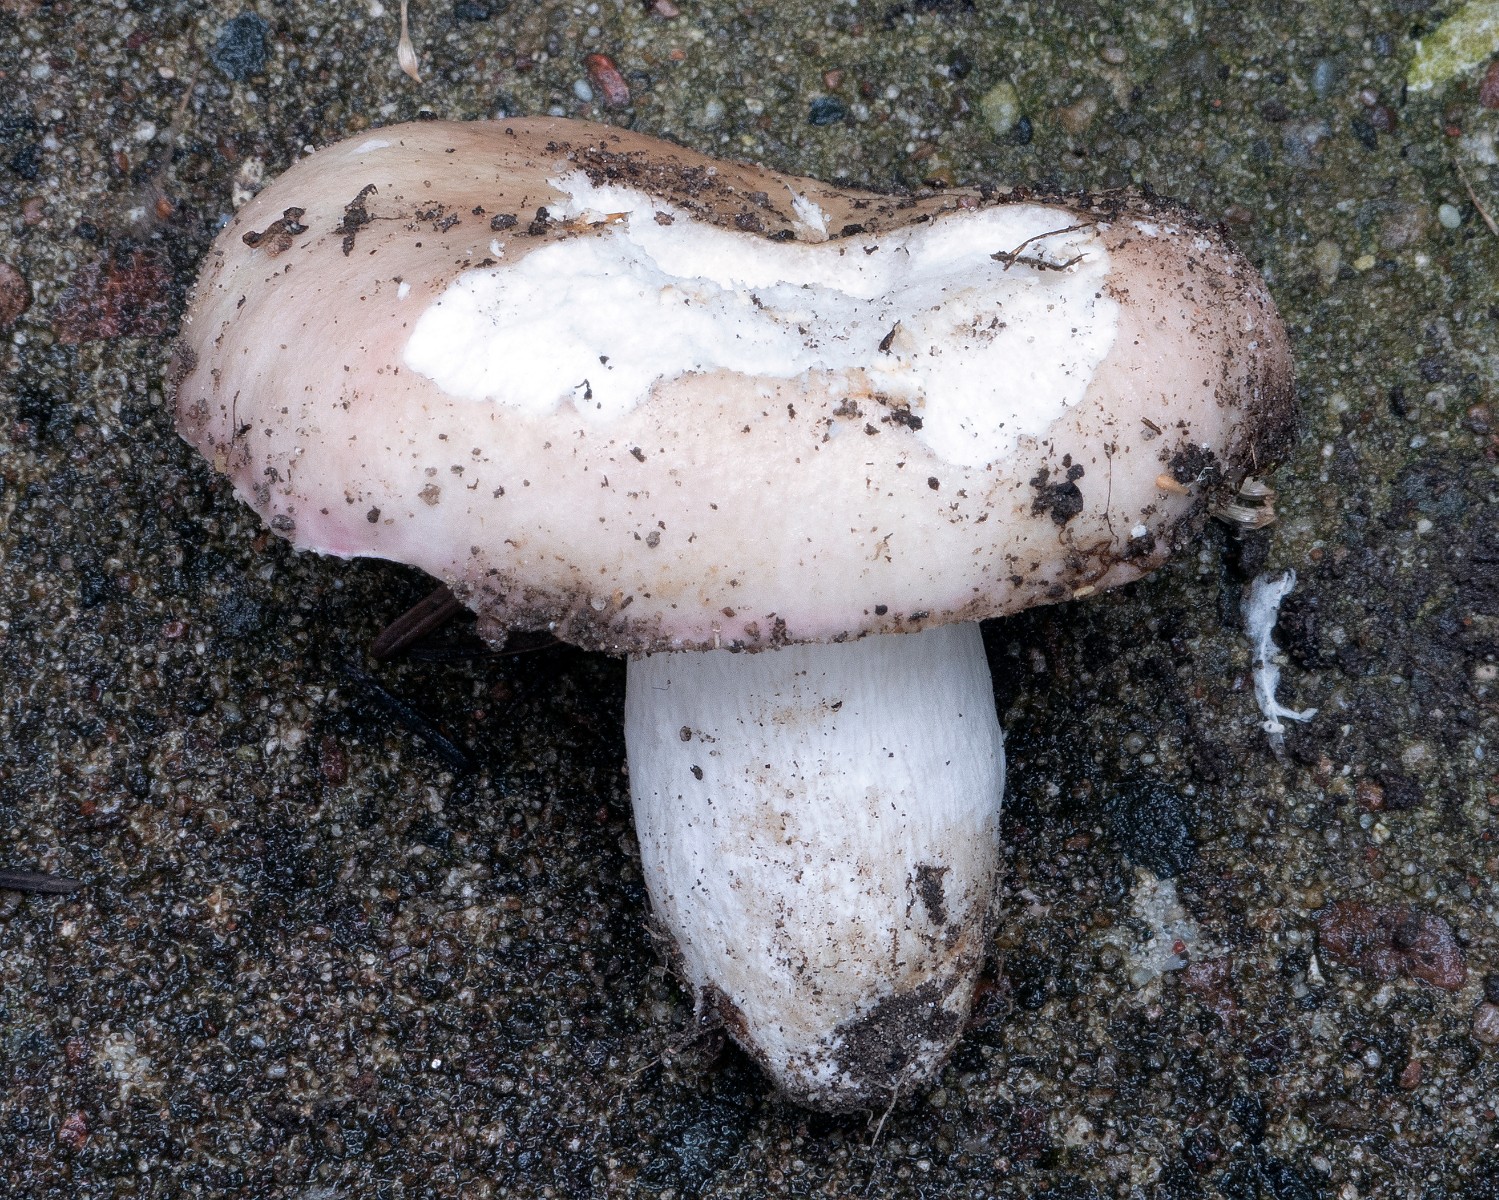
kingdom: Fungi
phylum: Basidiomycota
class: Agaricomycetes
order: Russulales
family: Russulaceae
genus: Russula
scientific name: Russula depallens
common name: falmende skørhat
